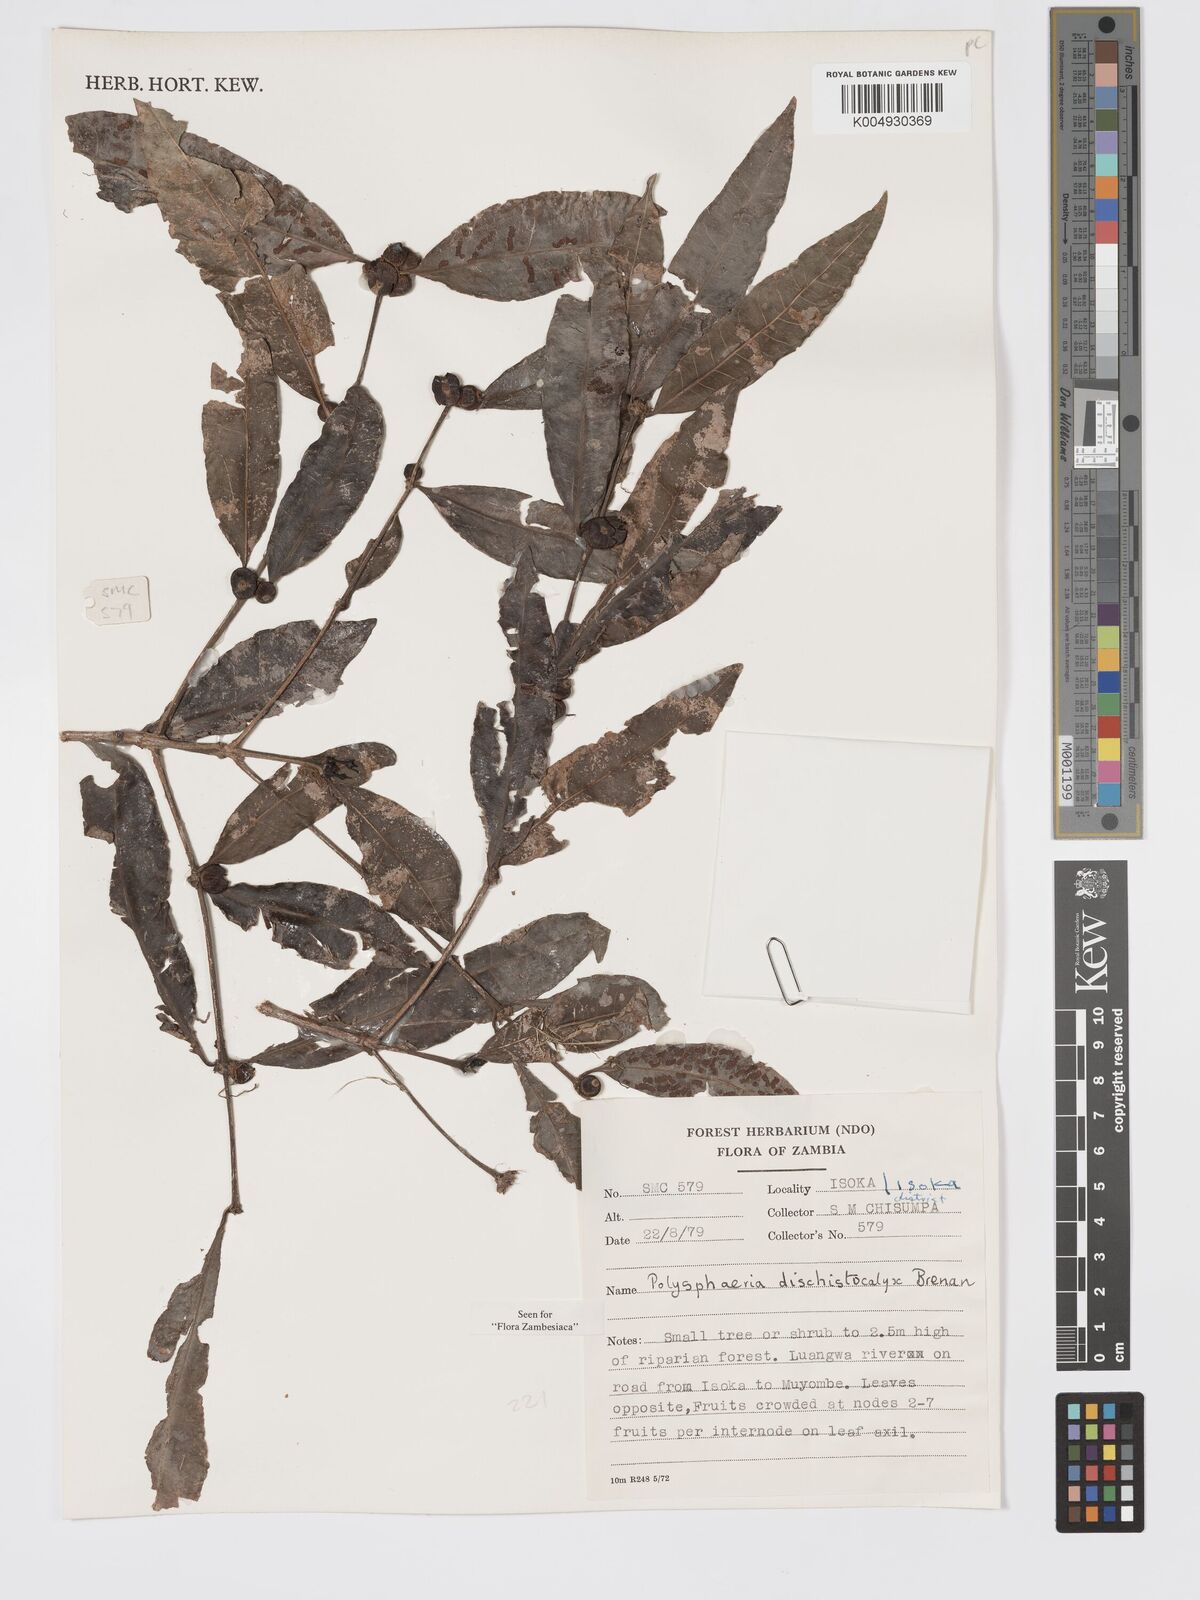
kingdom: Plantae
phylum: Tracheophyta
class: Magnoliopsida
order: Gentianales
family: Rubiaceae
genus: Polysphaeria
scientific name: Polysphaeria dischistocalyx
